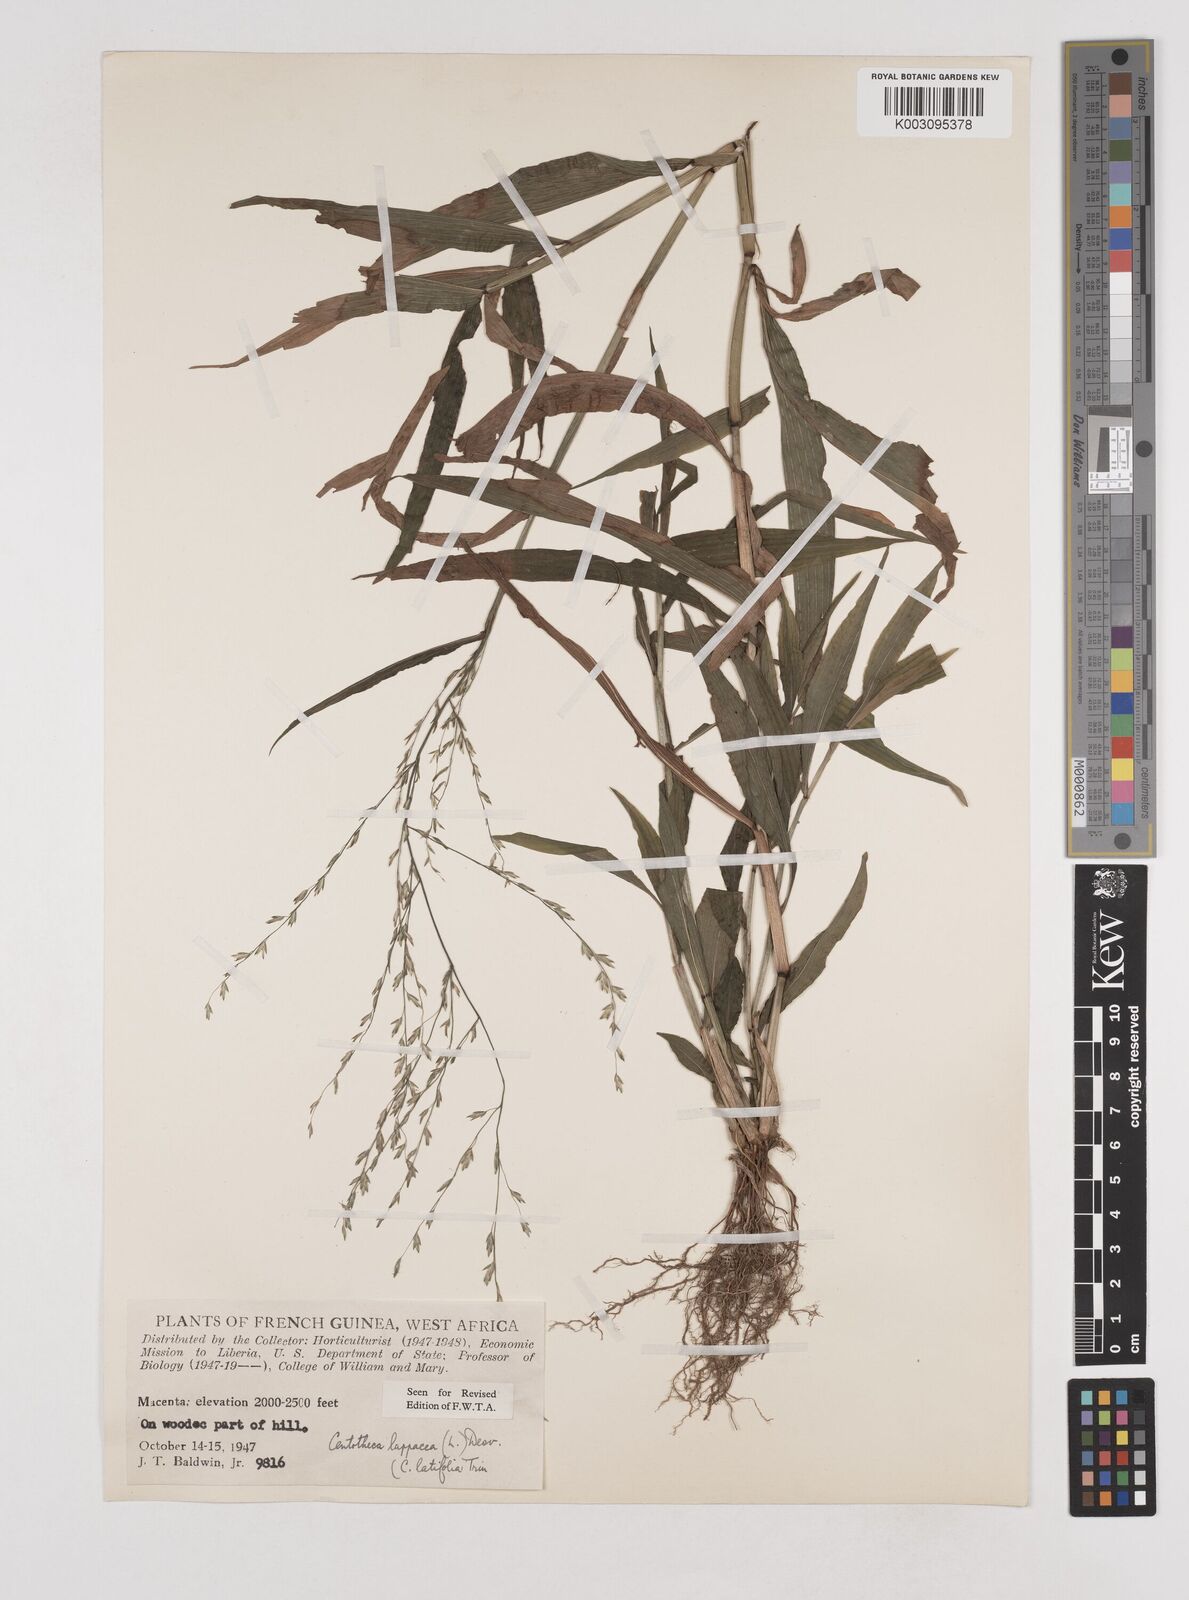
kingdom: Plantae
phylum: Tracheophyta
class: Liliopsida
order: Poales
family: Poaceae
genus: Centotheca
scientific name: Centotheca lappacea
